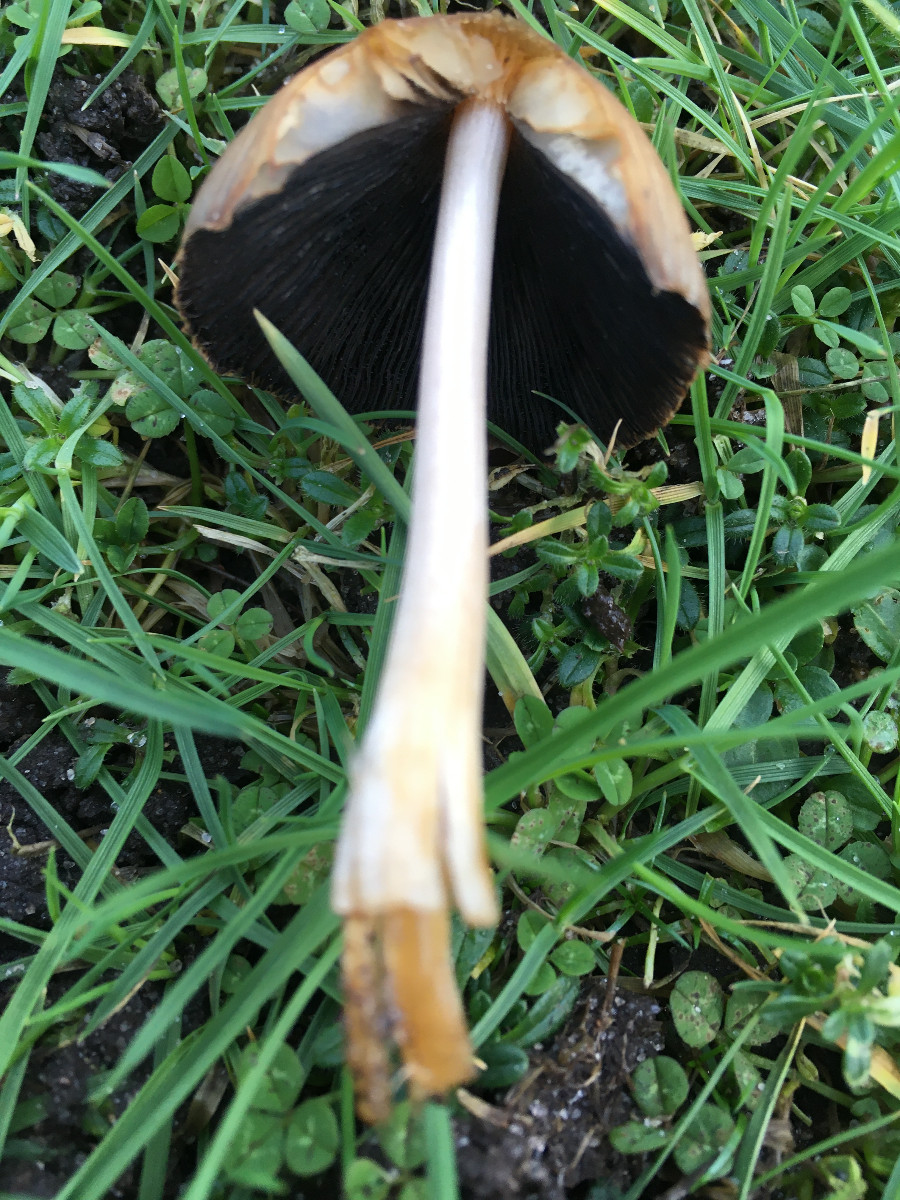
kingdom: Fungi
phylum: Basidiomycota
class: Agaricomycetes
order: Agaricales
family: Psathyrellaceae
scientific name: Psathyrellaceae
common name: mørkhatfamilien
